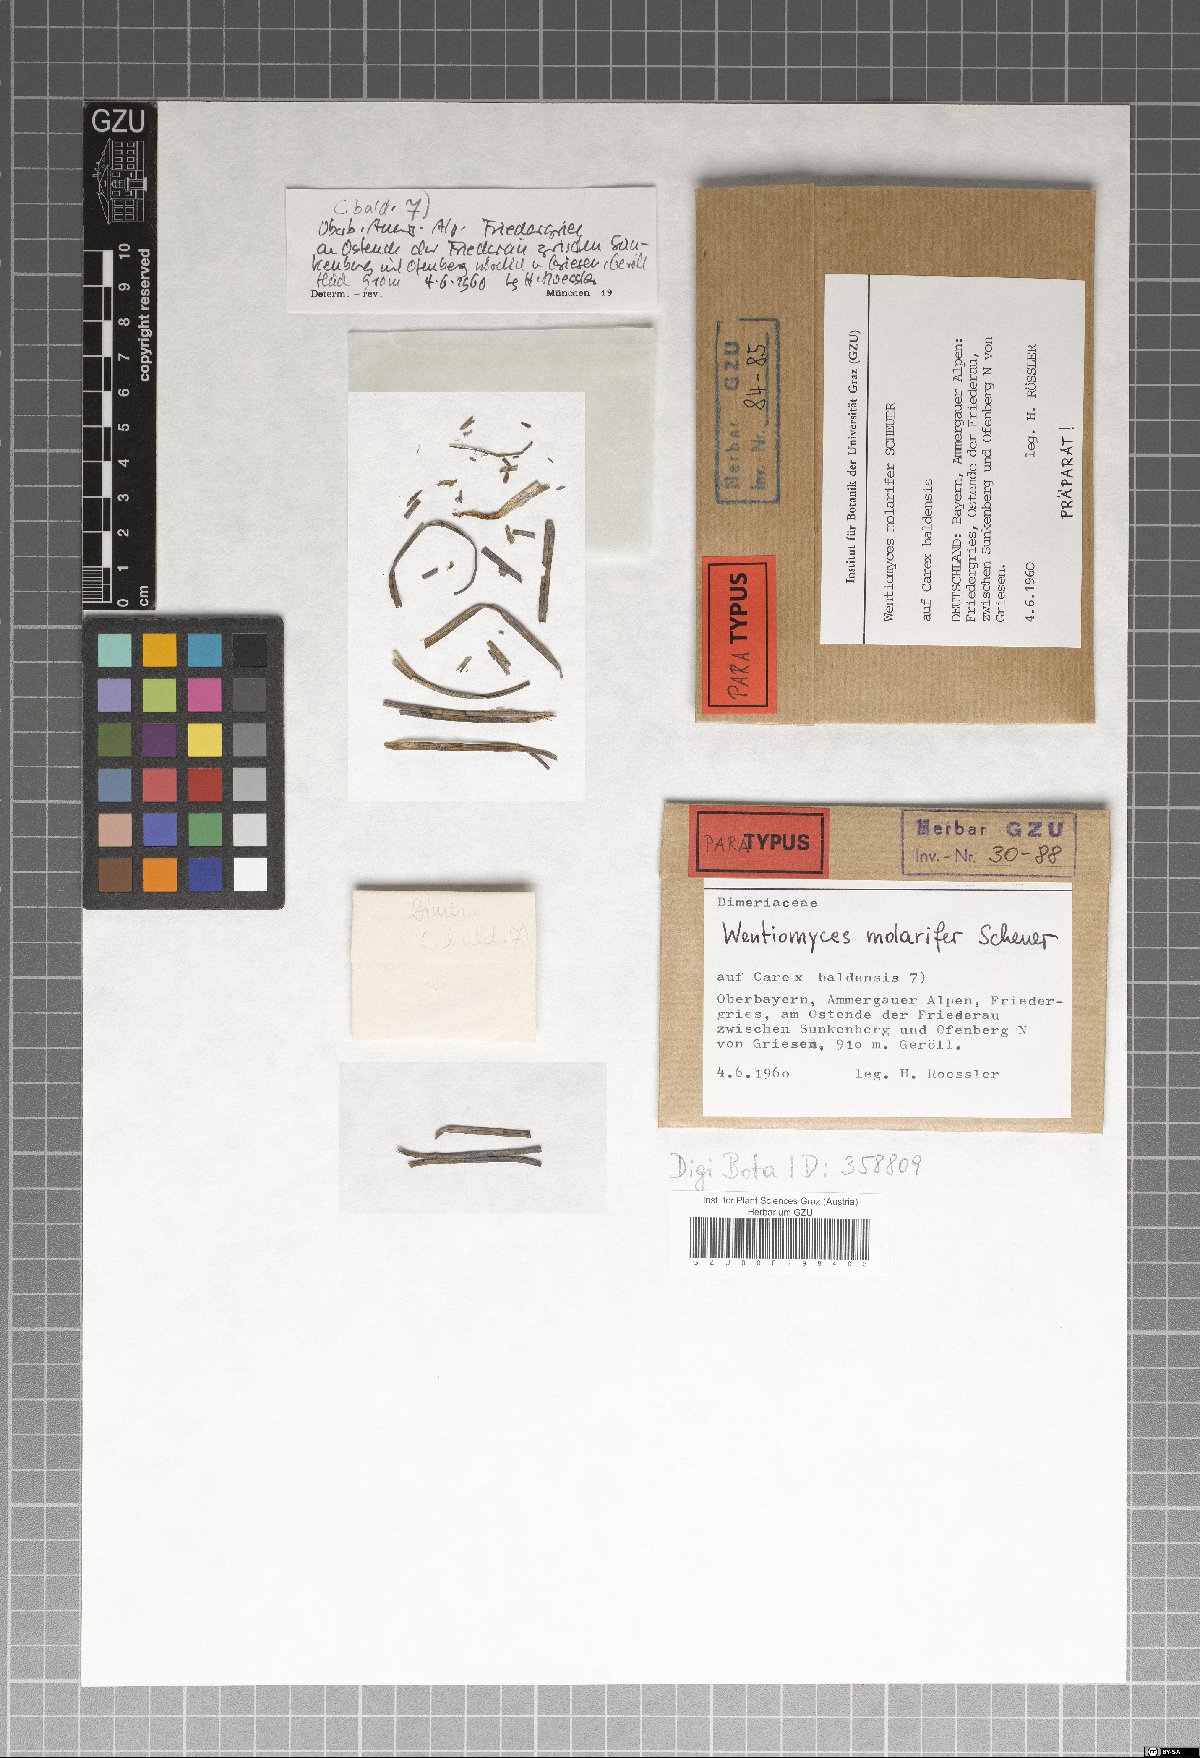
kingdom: Fungi
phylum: Ascomycota
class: Dothideomycetes
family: Pseudoperisporiaceae
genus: Wentiomyces
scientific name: Wentiomyces molarifer
